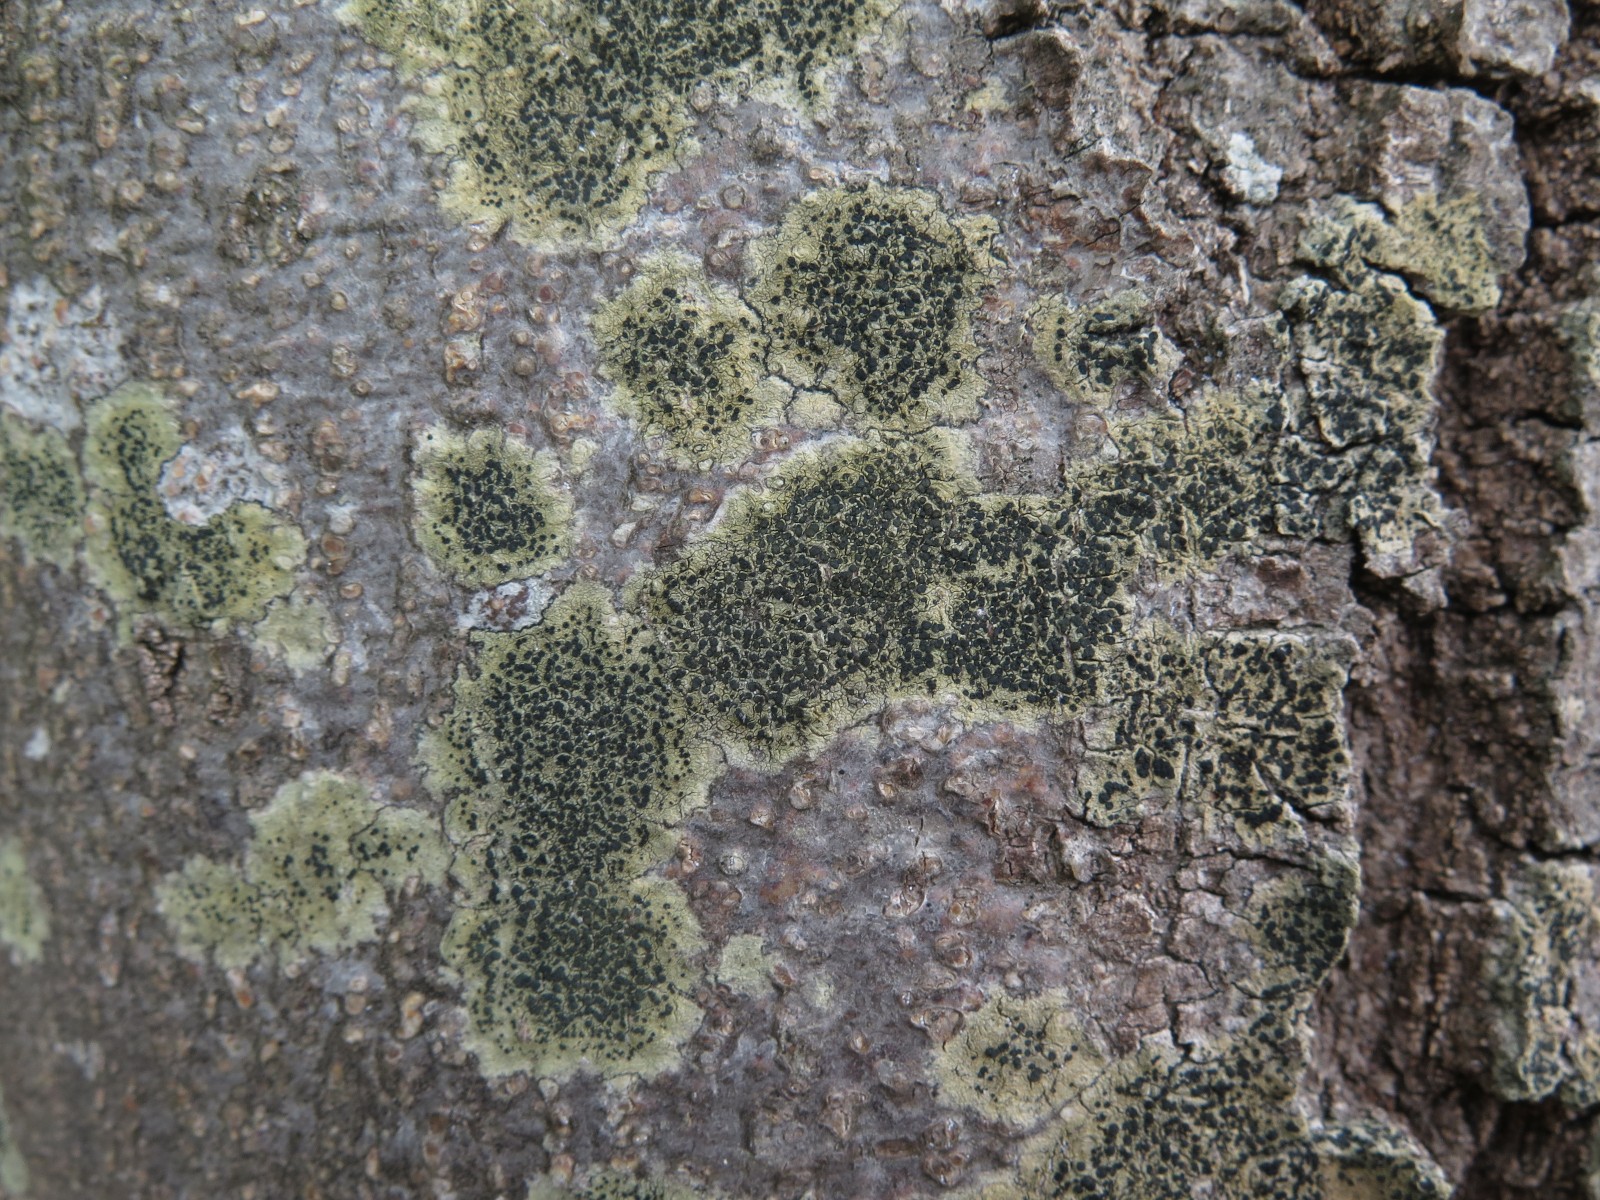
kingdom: Fungi
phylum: Ascomycota
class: Lecanoromycetes
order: Lecanorales
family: Lecanoraceae
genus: Lecidella
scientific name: Lecidella elaeochroma
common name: grågrøn skivelav
